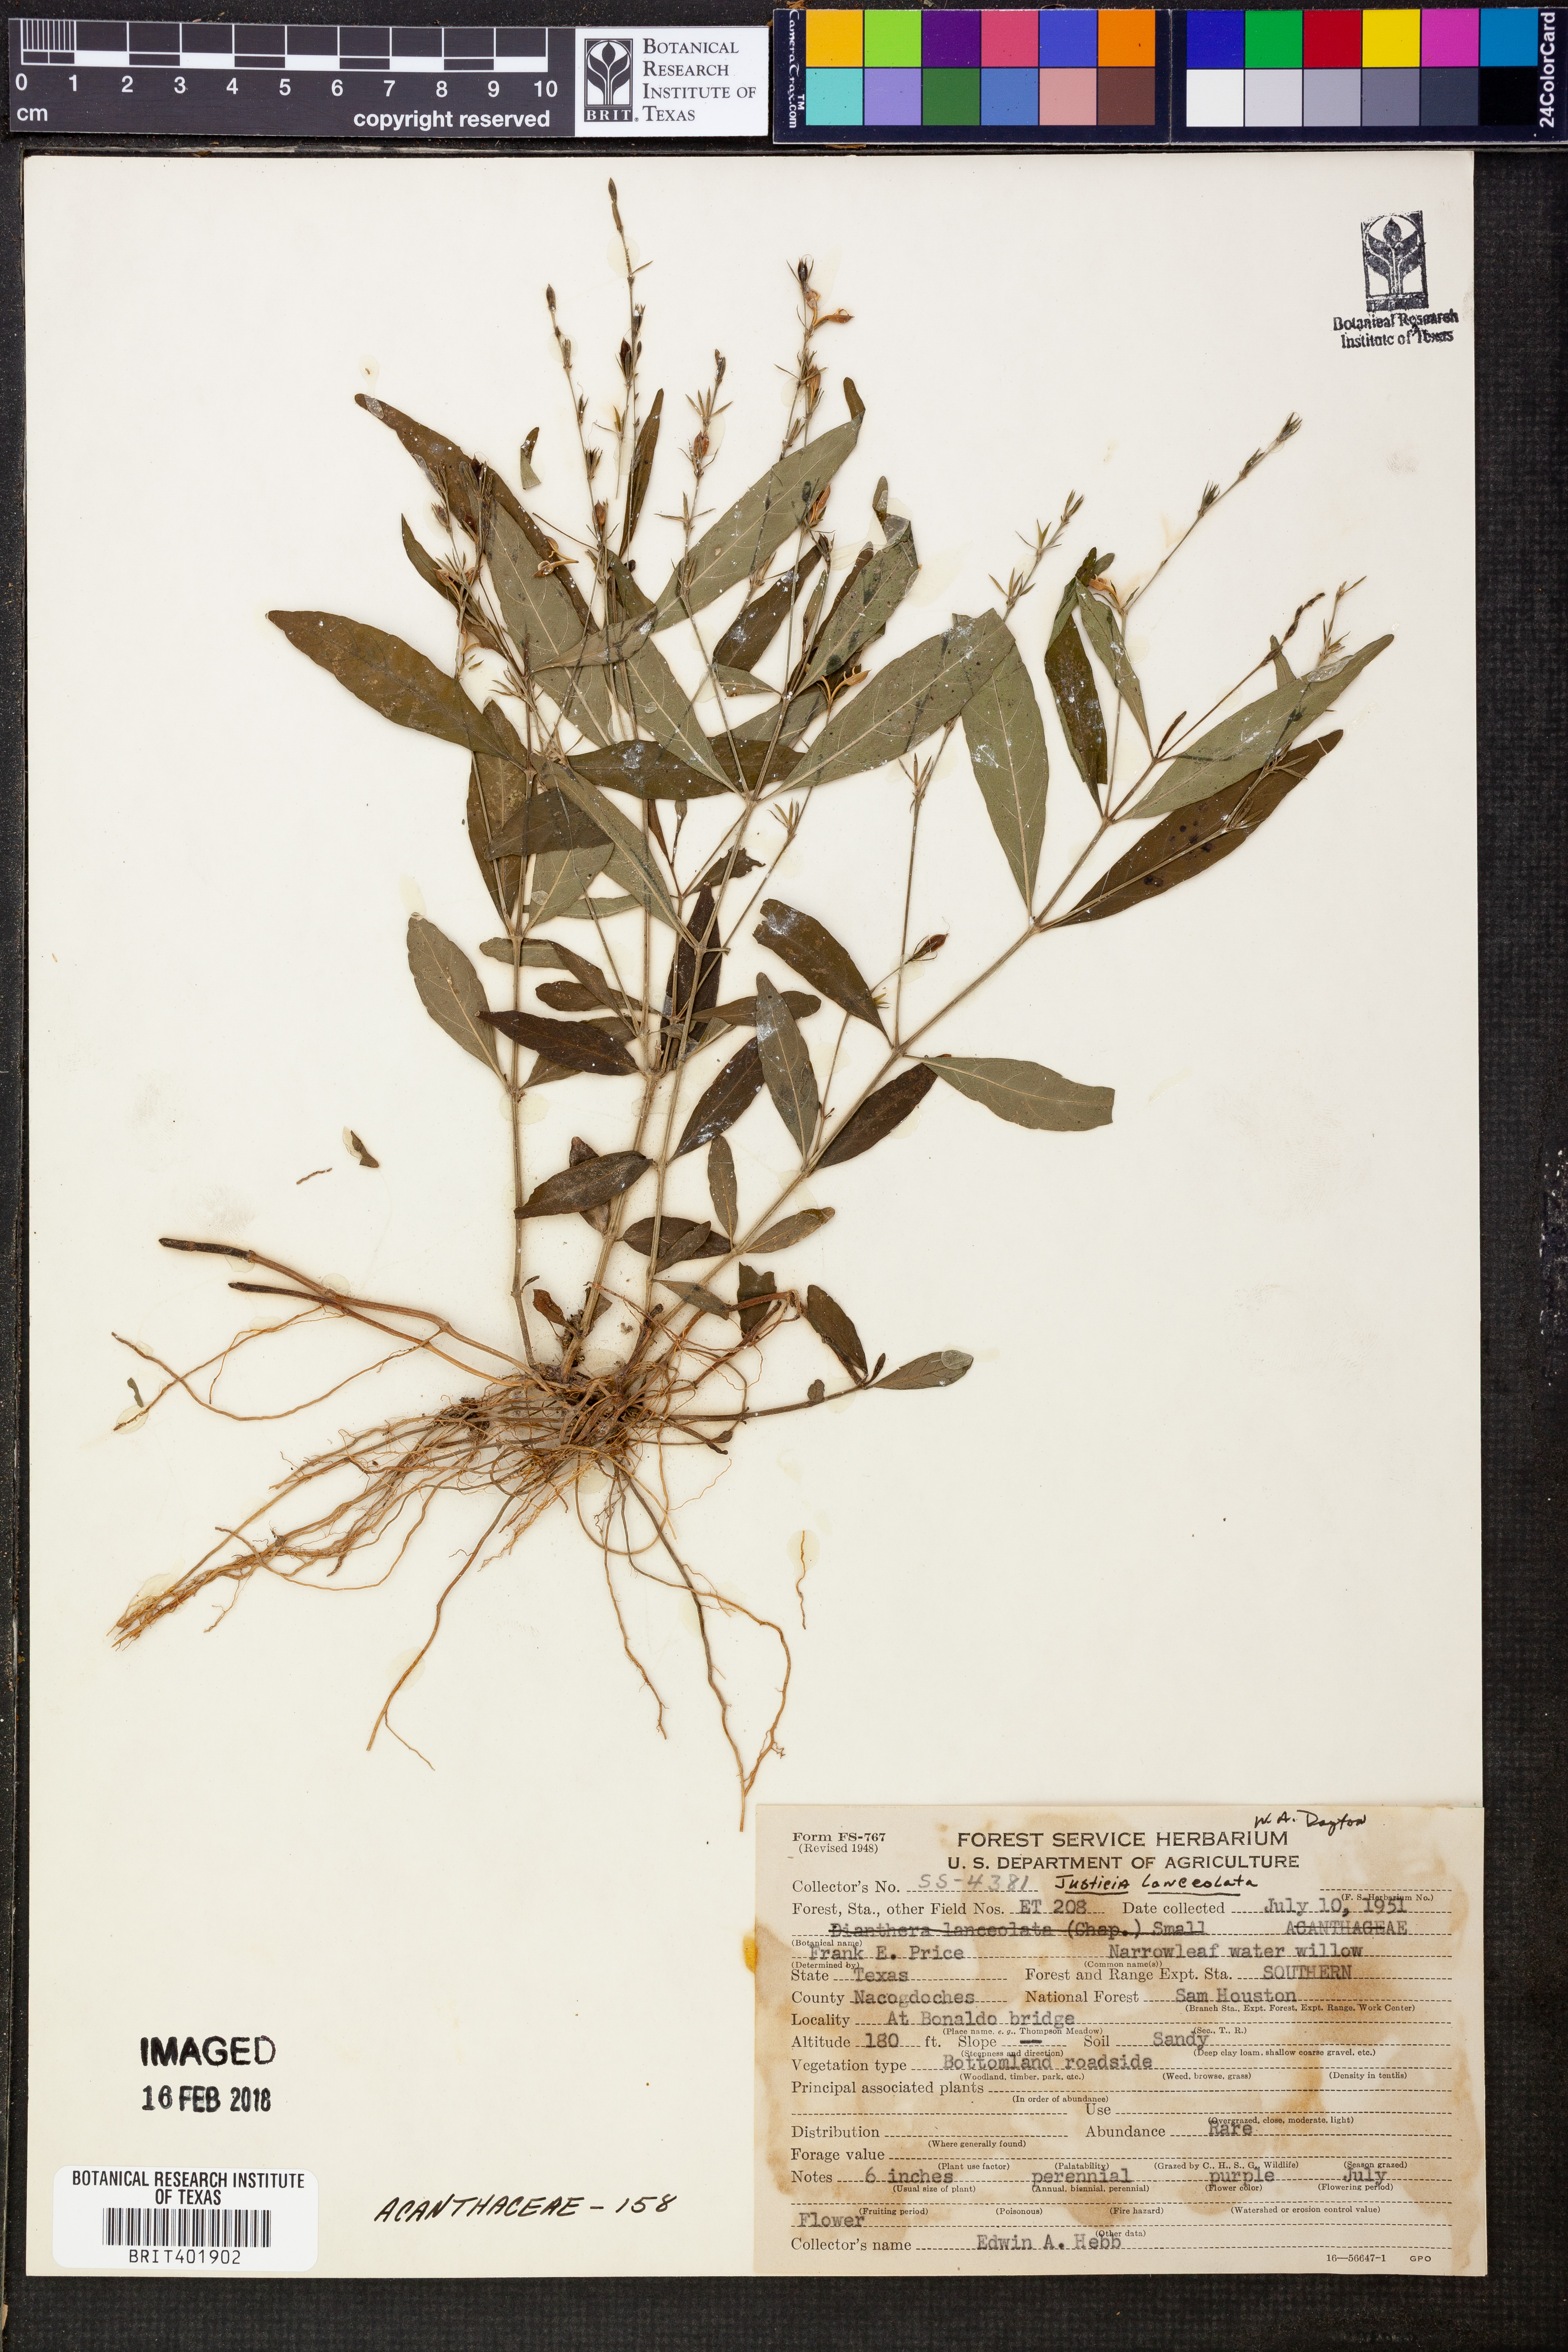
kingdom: Plantae
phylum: Tracheophyta
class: Magnoliopsida
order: Lamiales
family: Acanthaceae
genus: Justicia
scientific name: Justicia lanceolata
